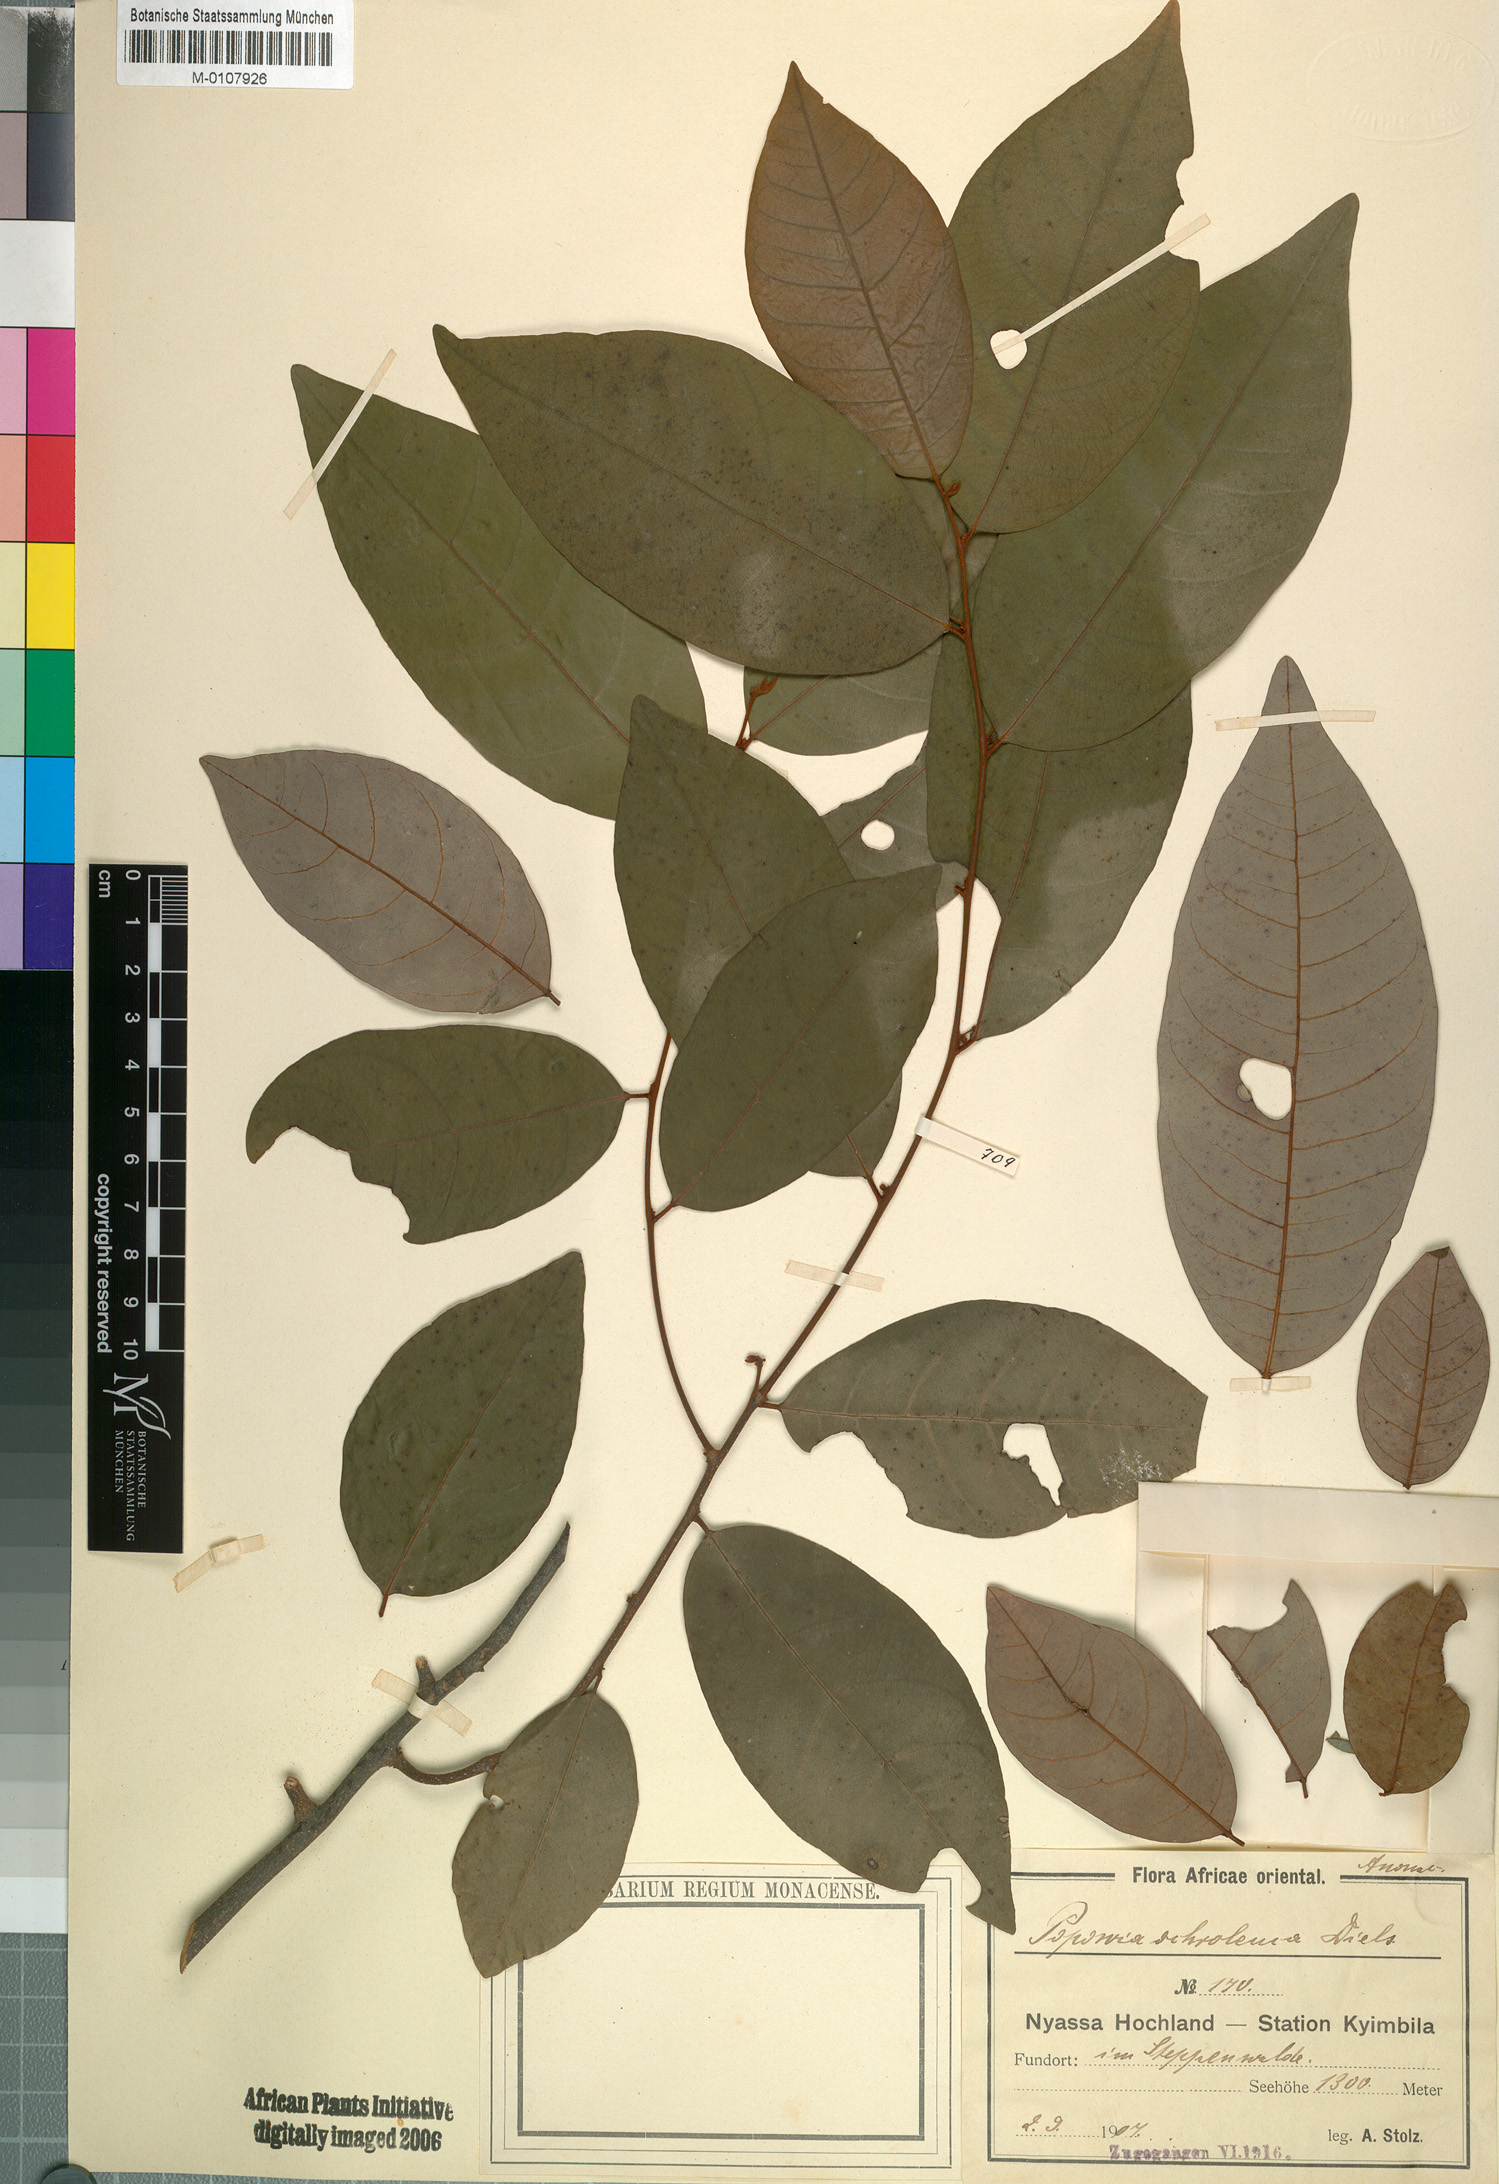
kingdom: Plantae
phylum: Tracheophyta
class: Magnoliopsida
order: Magnoliales
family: Annonaceae
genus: Monanthotaxis
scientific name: Monanthotaxis schweinfurthii
